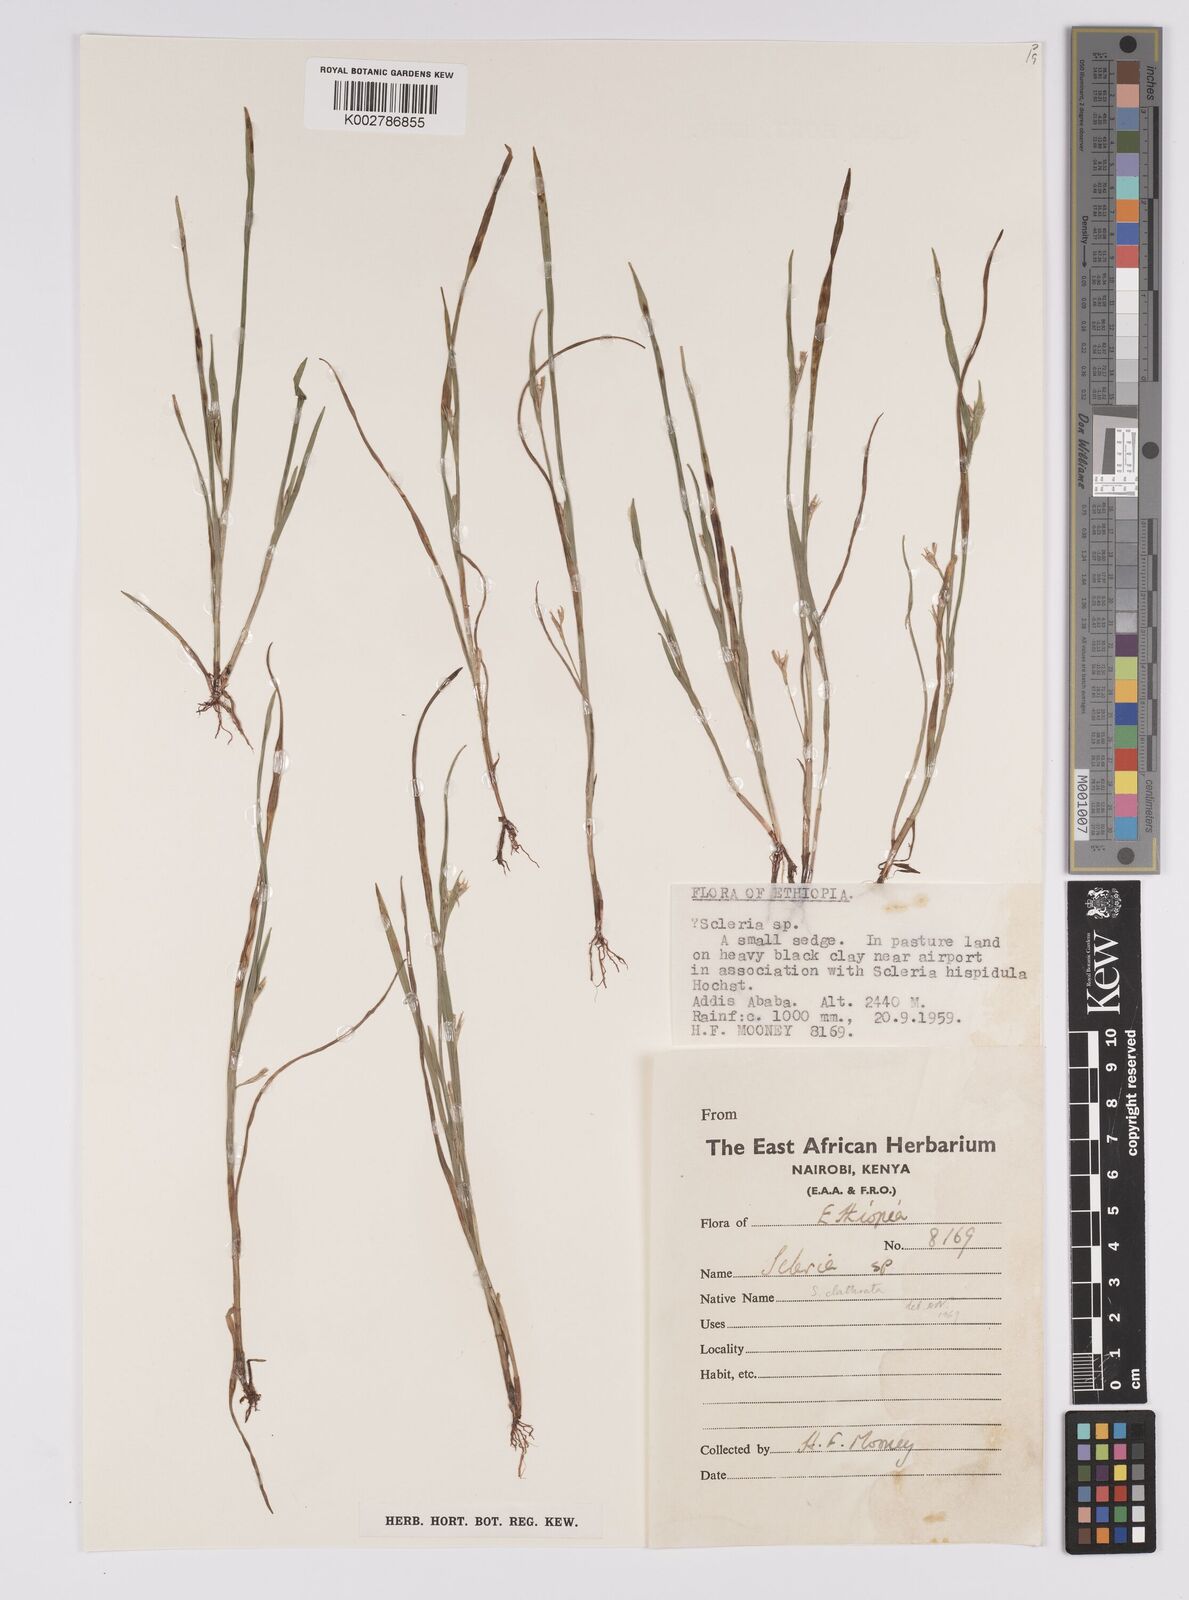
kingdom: Plantae
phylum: Tracheophyta
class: Liliopsida
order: Poales
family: Cyperaceae
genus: Scleria
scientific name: Scleria clathrata
